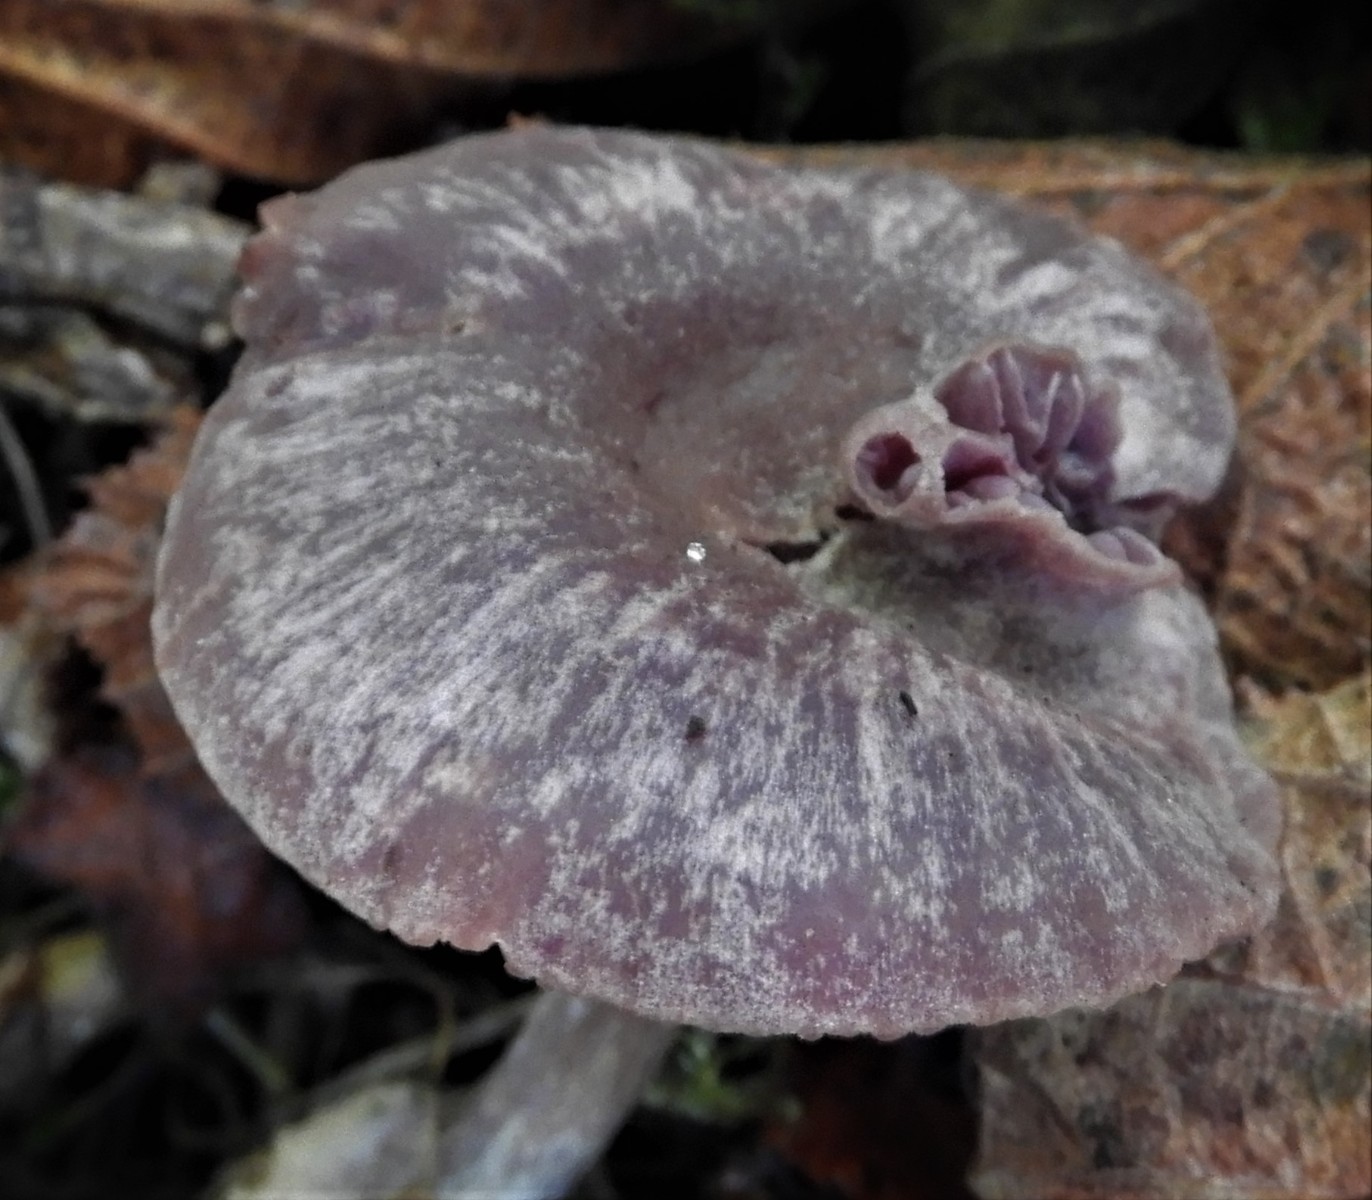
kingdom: Fungi
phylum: Basidiomycota
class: Agaricomycetes
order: Agaricales
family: Hydnangiaceae
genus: Laccaria
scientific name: Laccaria amethystina
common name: violet ametysthat
